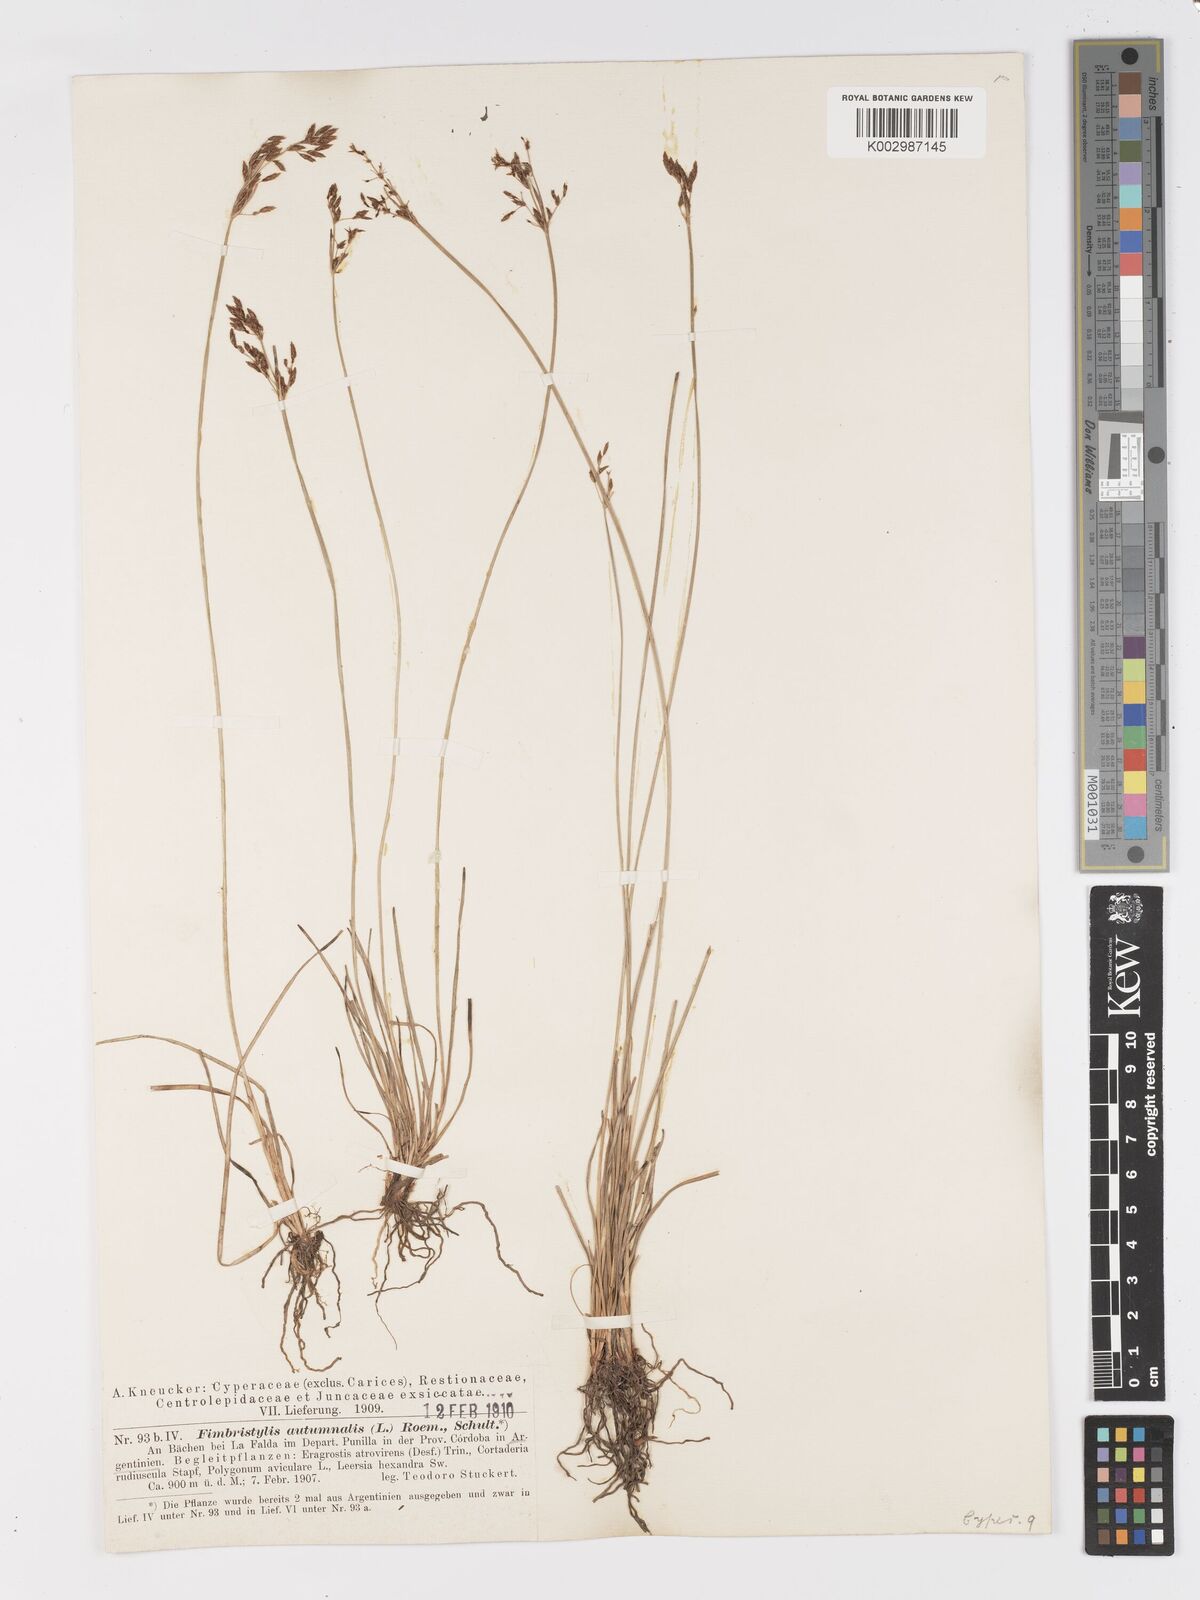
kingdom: Plantae
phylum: Tracheophyta
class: Liliopsida
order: Poales
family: Cyperaceae
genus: Fimbristylis
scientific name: Fimbristylis autumnalis
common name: Slender fimbristylis
